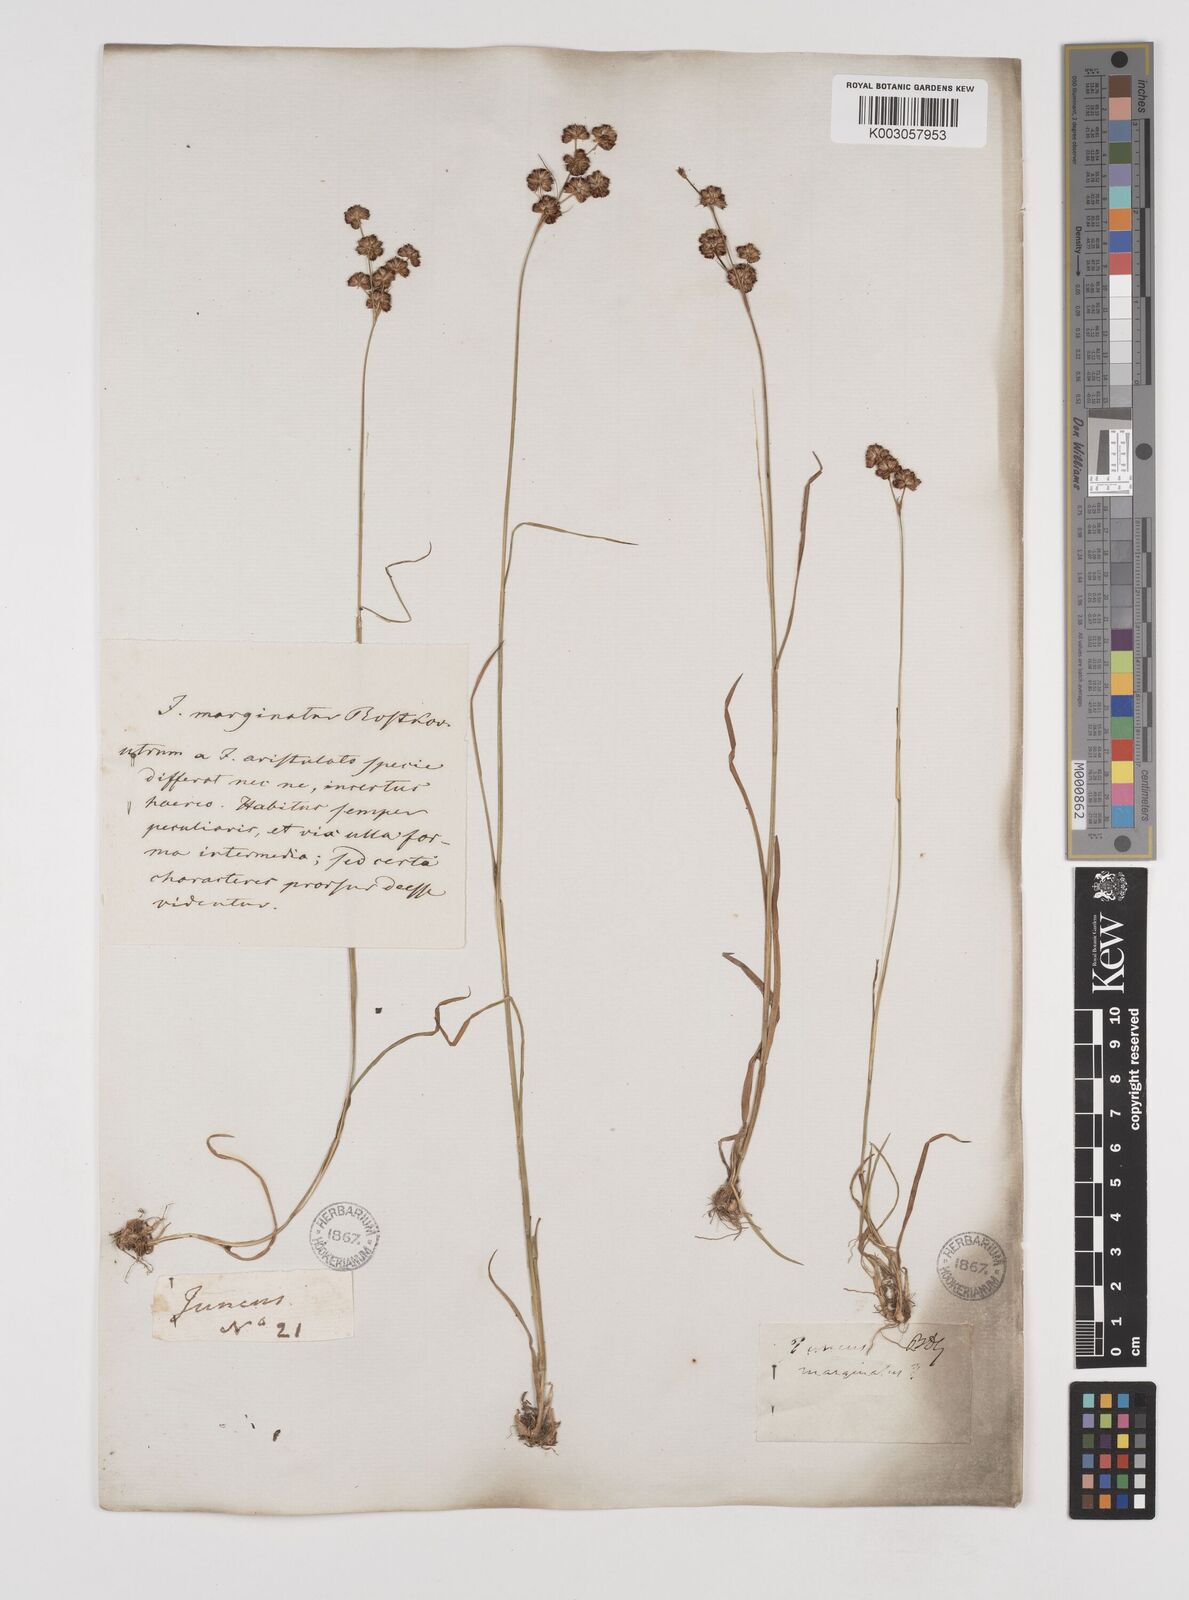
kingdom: Plantae
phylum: Tracheophyta
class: Liliopsida
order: Poales
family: Juncaceae
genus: Juncus
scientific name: Juncus marginatus
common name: Grass-leaf rush
